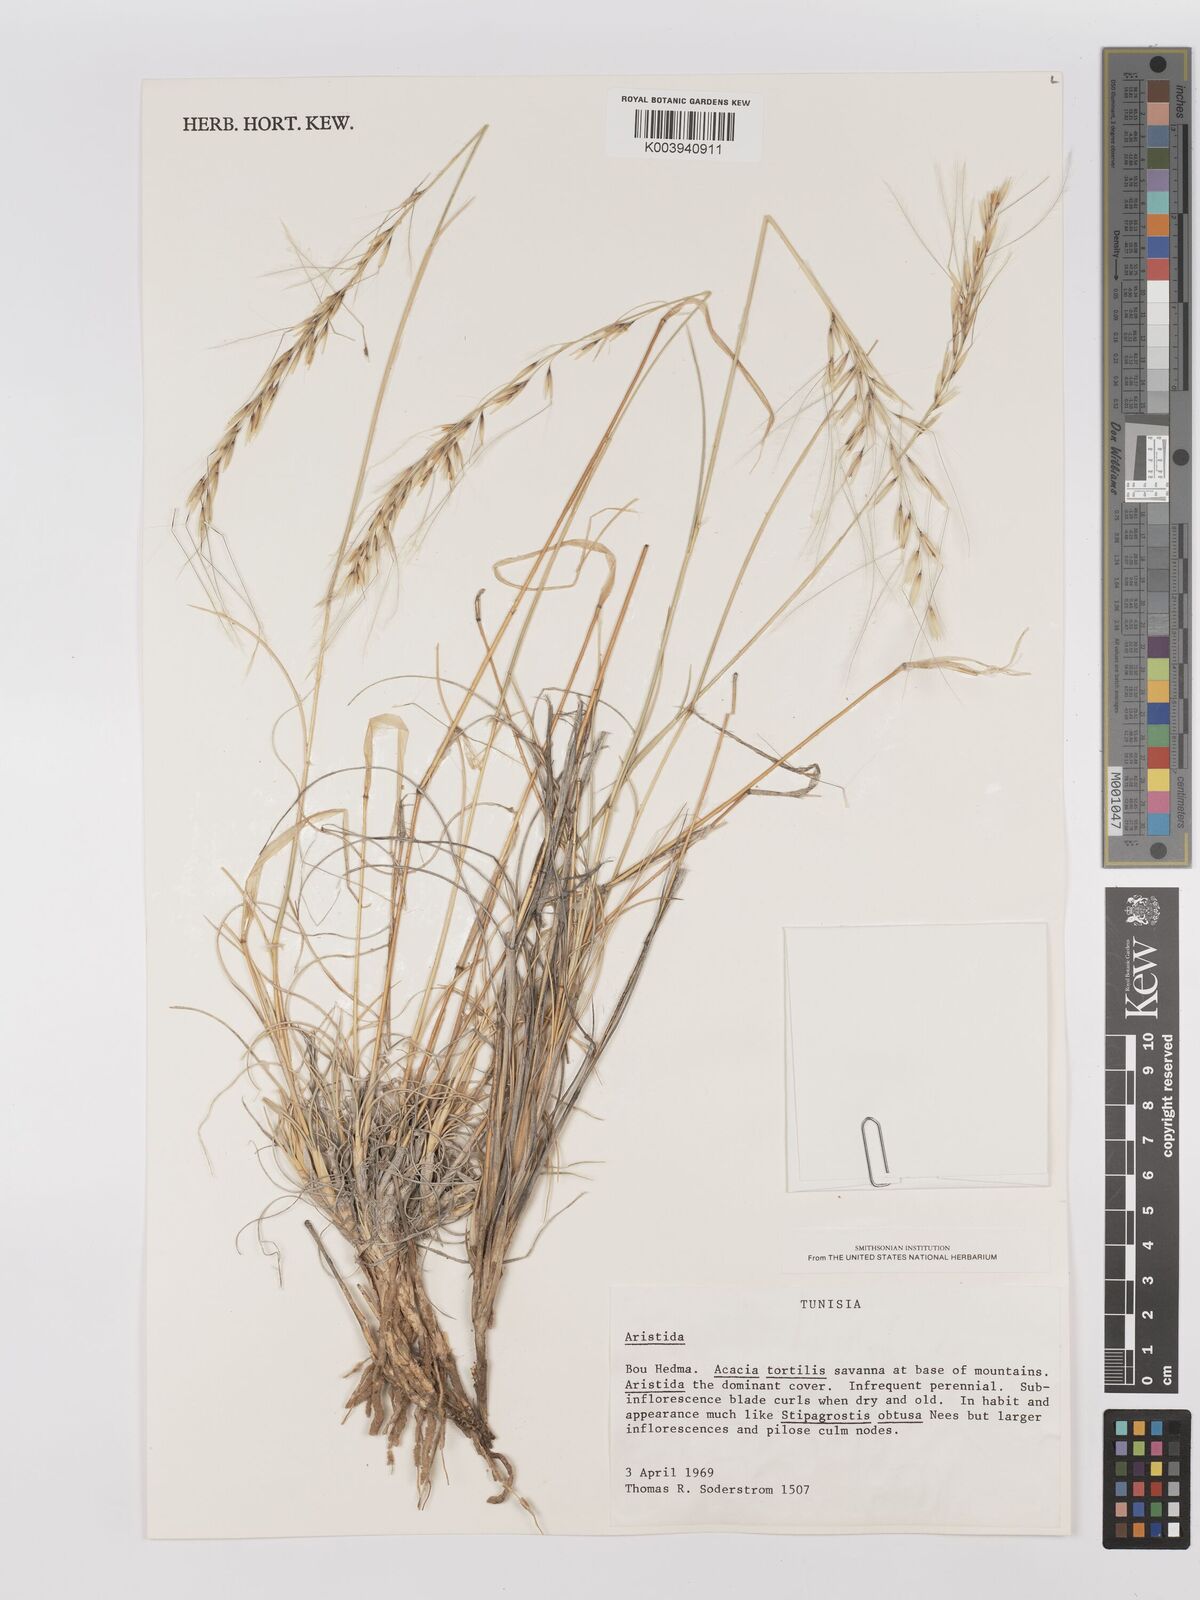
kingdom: Plantae
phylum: Tracheophyta
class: Liliopsida
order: Poales
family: Poaceae
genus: Stipagrostis
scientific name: Stipagrostis ciliata
